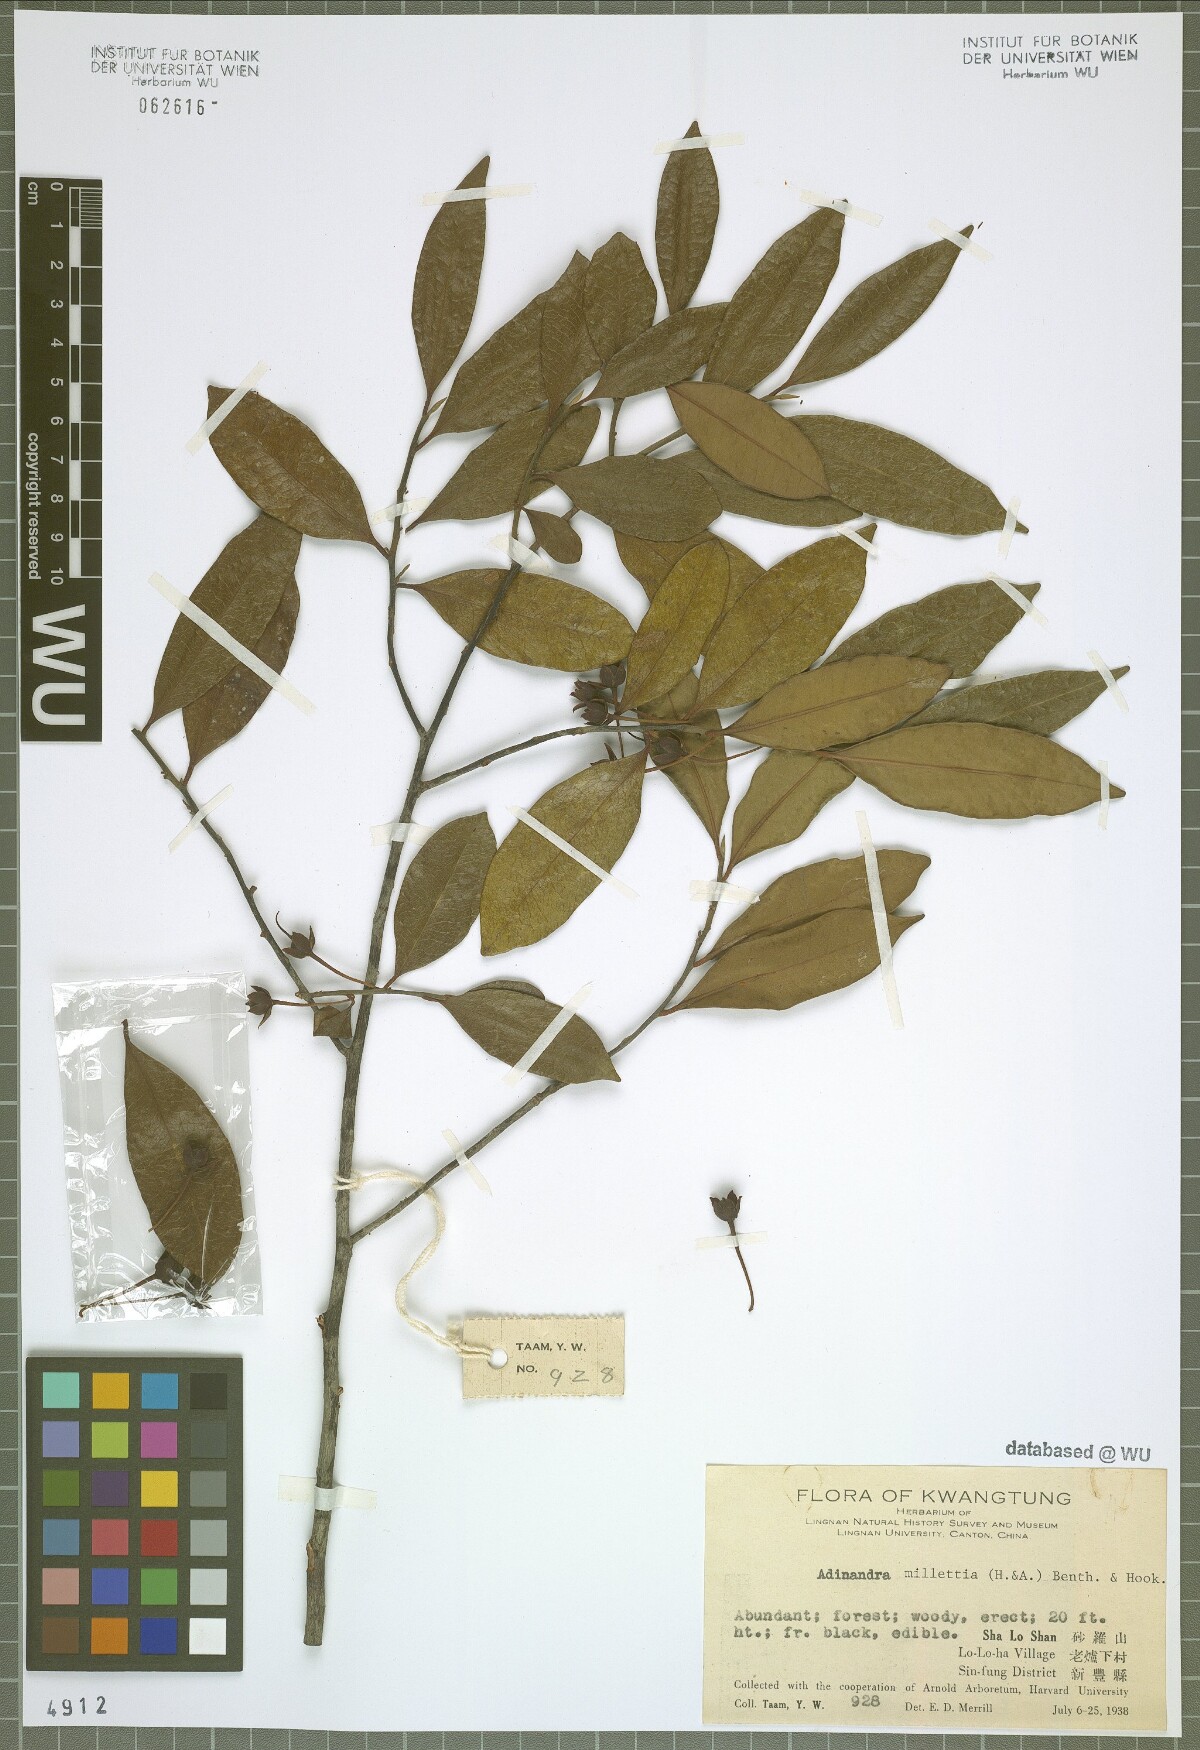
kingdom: Plantae
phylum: Tracheophyta
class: Magnoliopsida
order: Ericales
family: Pentaphylacaceae
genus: Adinandra
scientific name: Adinandra millettii
